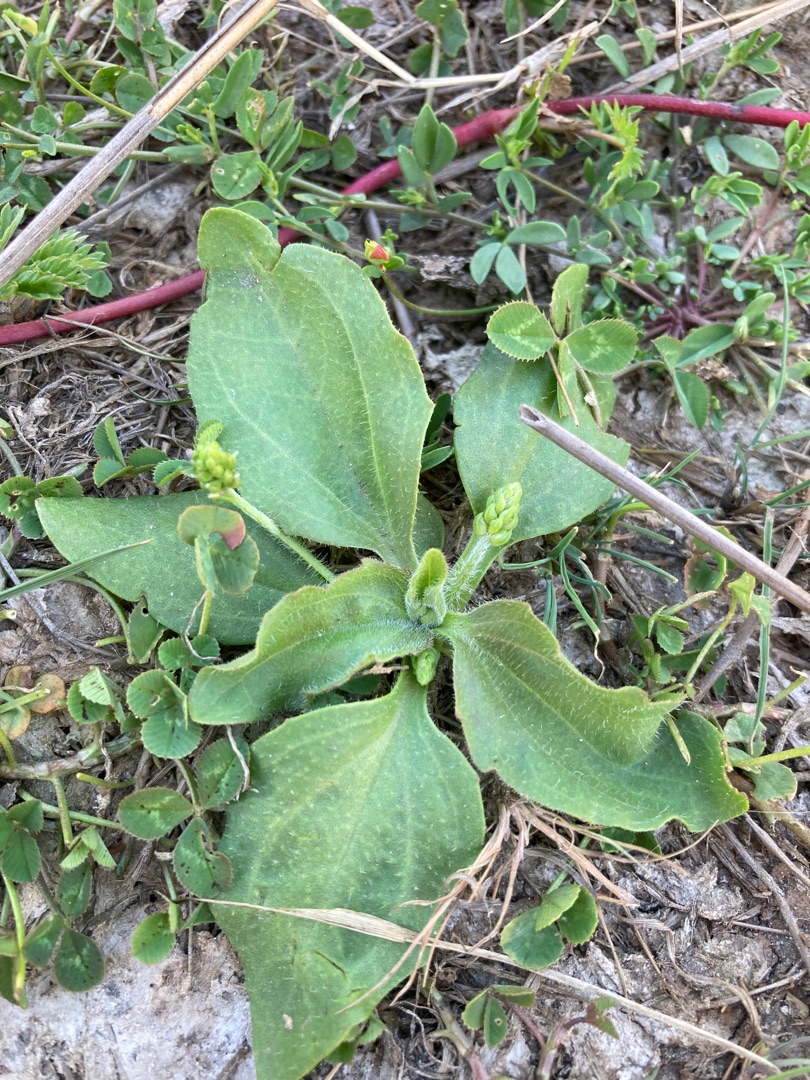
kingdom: Plantae
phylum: Tracheophyta
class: Magnoliopsida
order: Lamiales
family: Plantaginaceae
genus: Plantago
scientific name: Plantago major
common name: Glat vejbred
